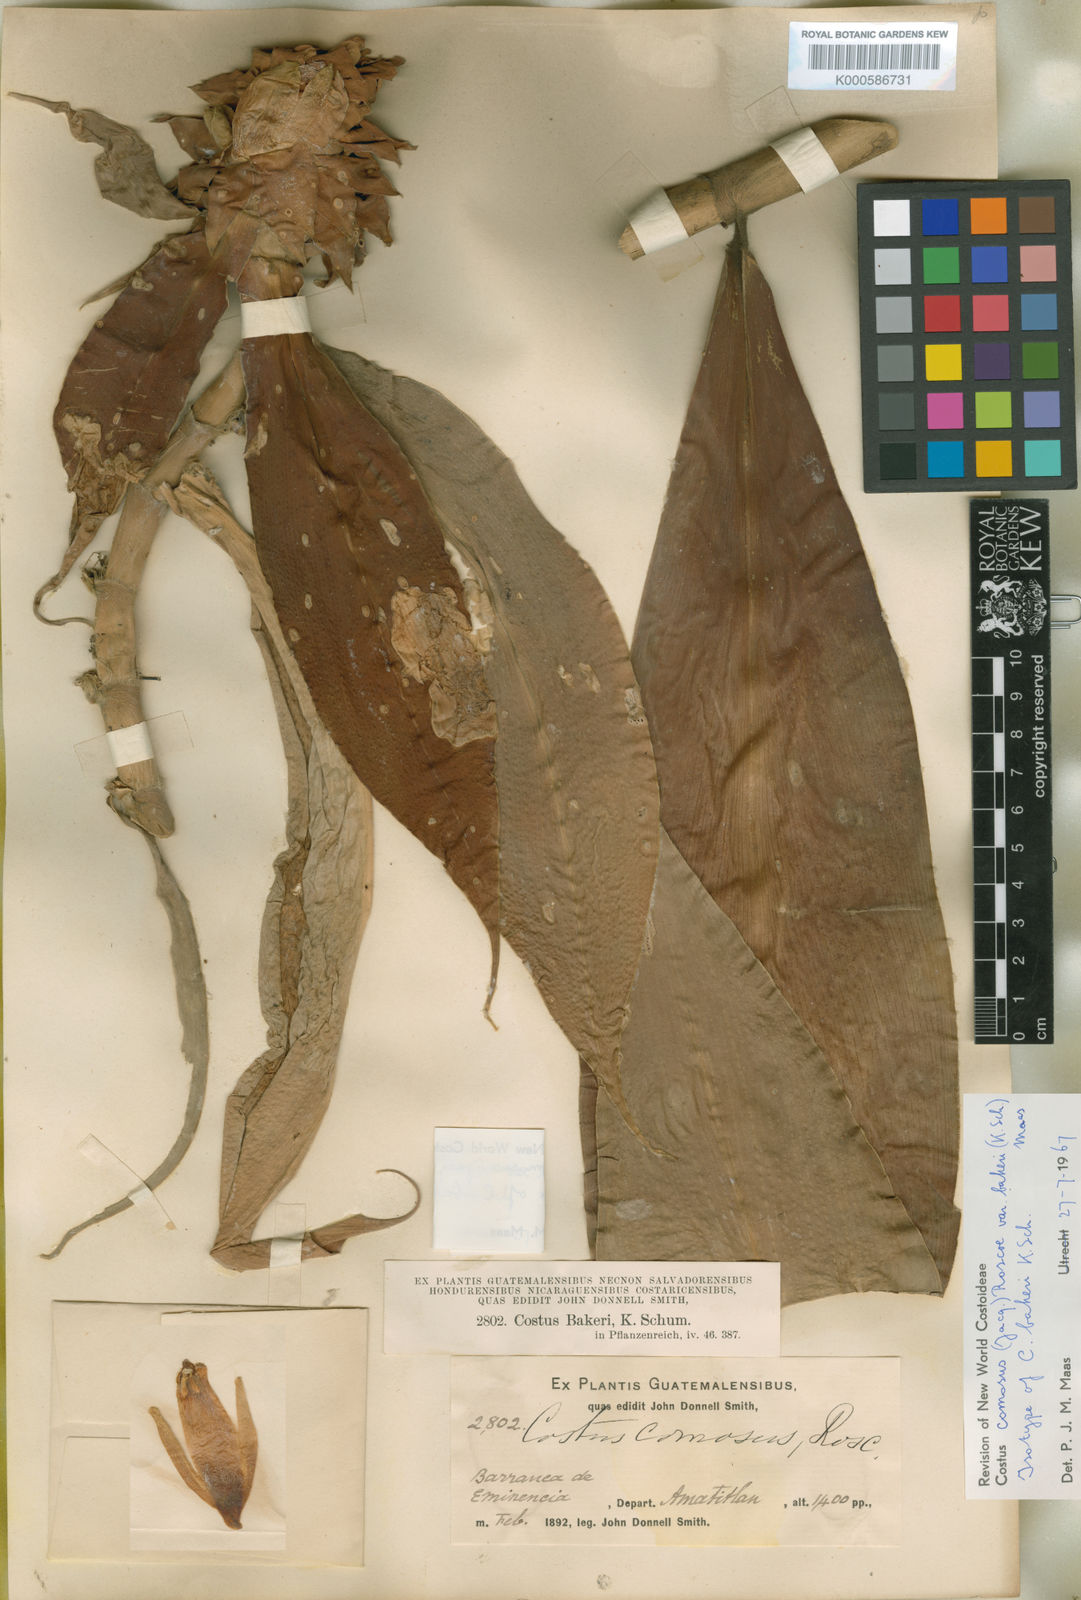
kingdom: Plantae
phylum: Tracheophyta
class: Liliopsida
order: Zingiberales
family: Costaceae
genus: Costus
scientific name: Costus comosus
